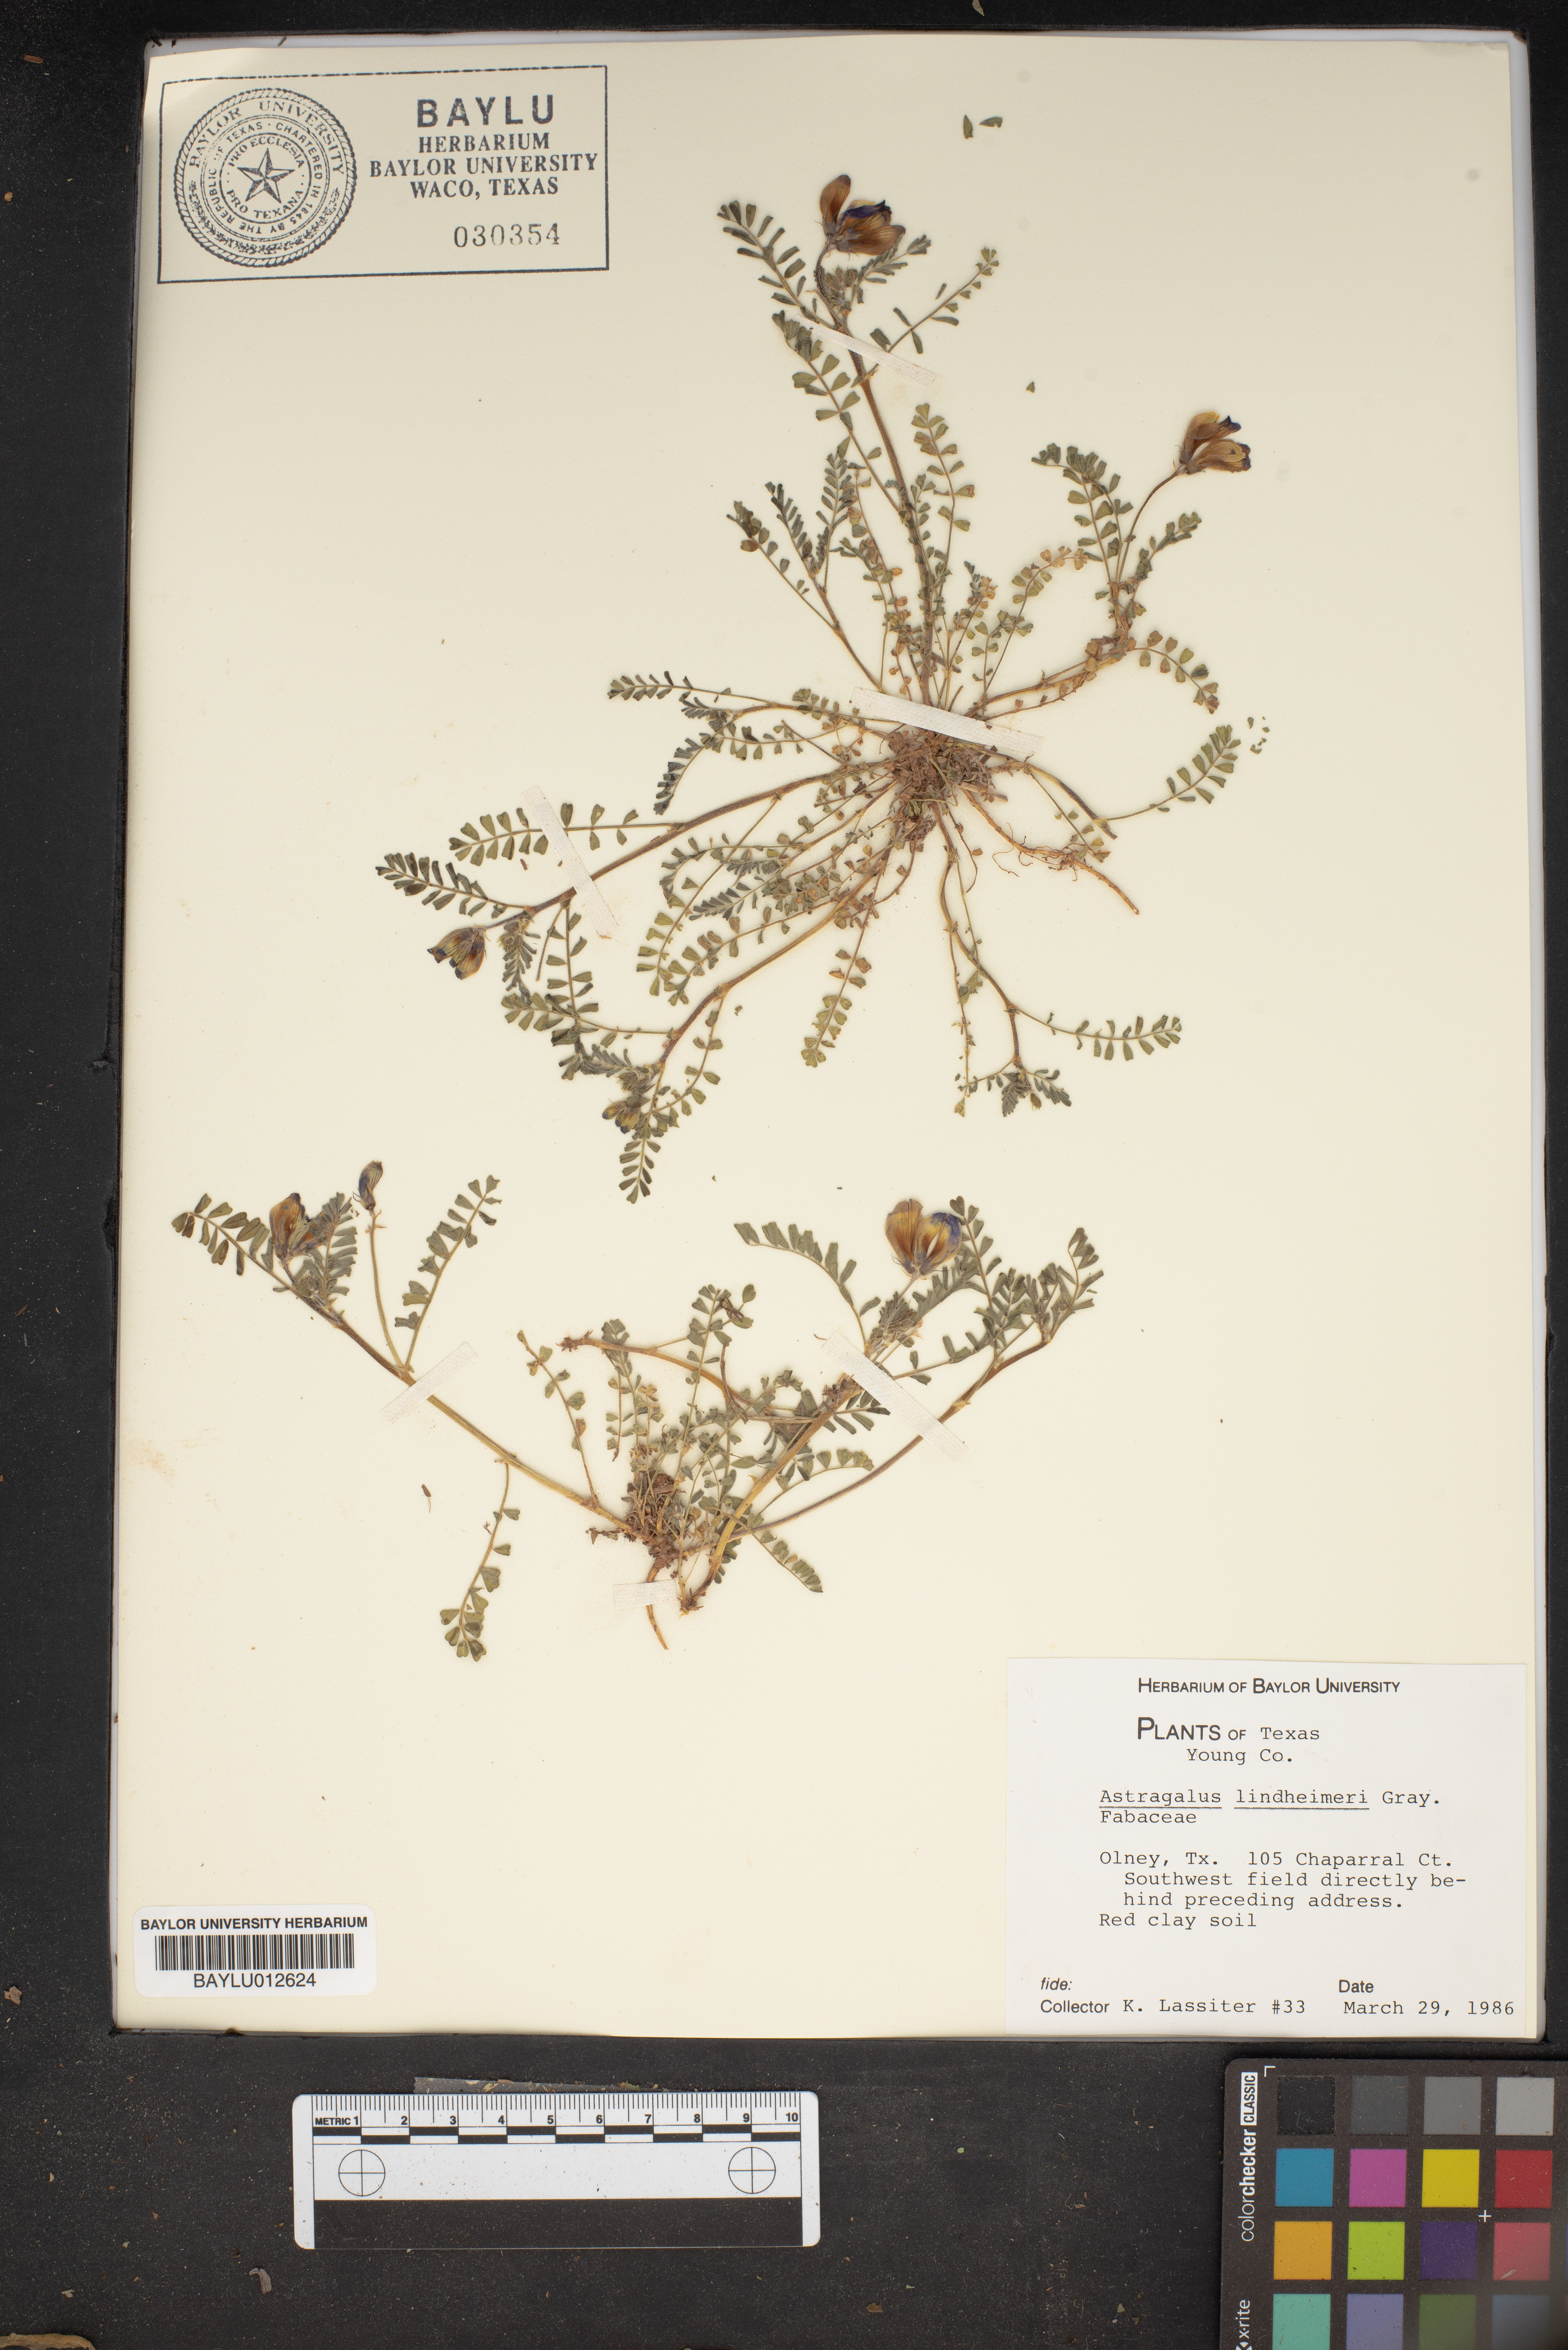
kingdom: Plantae
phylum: Tracheophyta
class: Magnoliopsida
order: Fabales
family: Fabaceae
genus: Astragalus
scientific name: Astragalus lindheimeri
